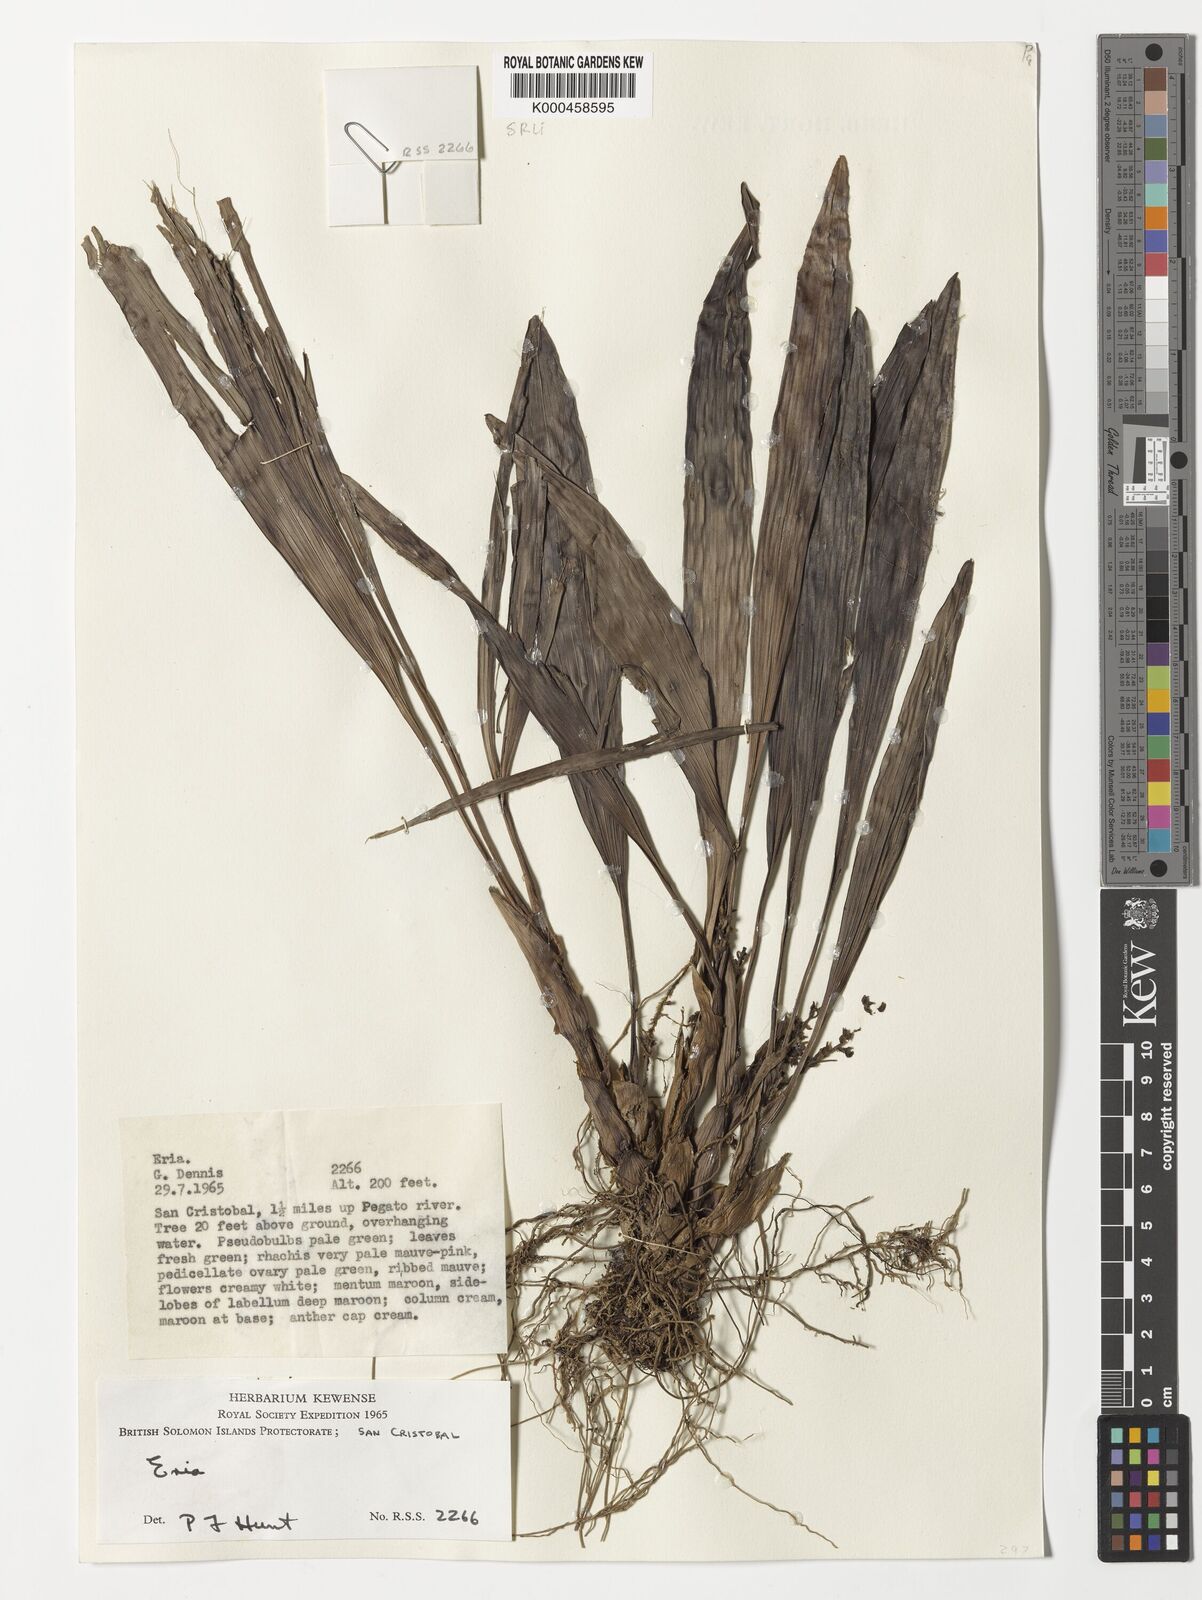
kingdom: Plantae
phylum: Tracheophyta
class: Liliopsida
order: Asparagales
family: Orchidaceae
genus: Bryobium
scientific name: Bryobium eriaeoides
